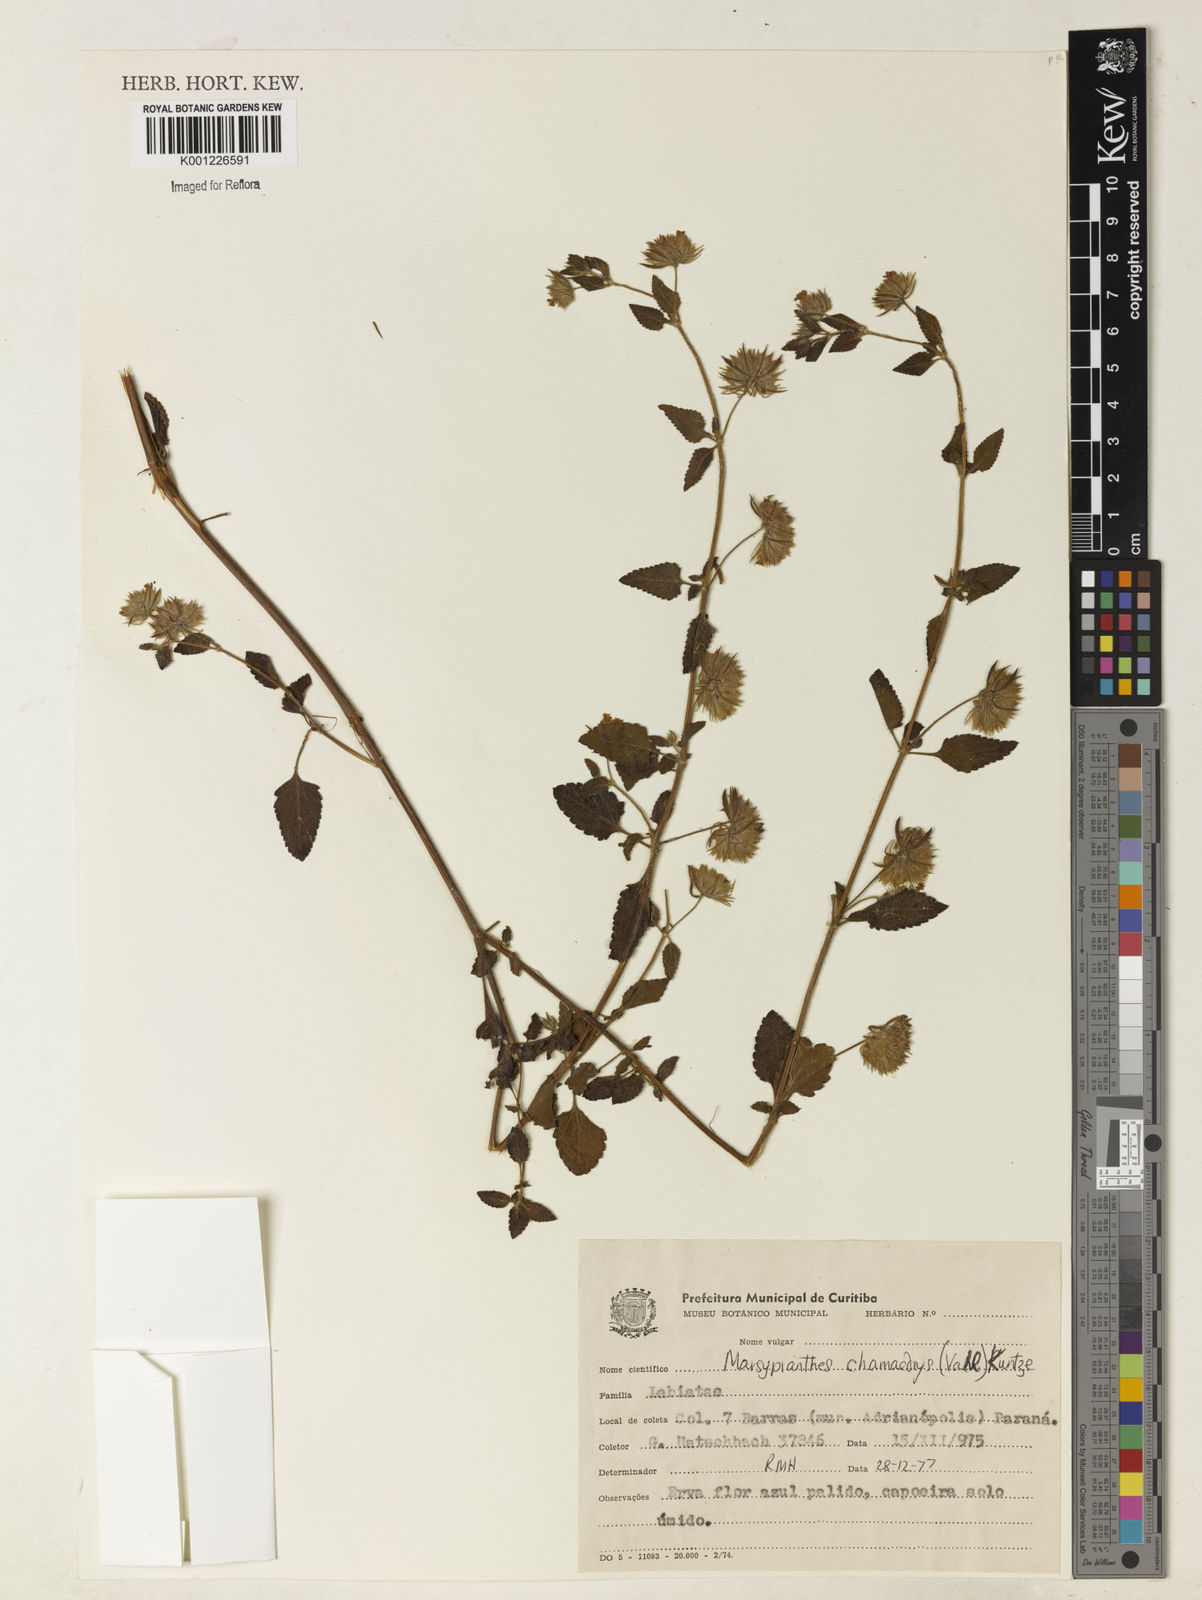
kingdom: Plantae
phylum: Tracheophyta
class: Magnoliopsida
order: Lamiales
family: Lamiaceae
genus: Marsypianthes
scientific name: Marsypianthes chamaedrys
